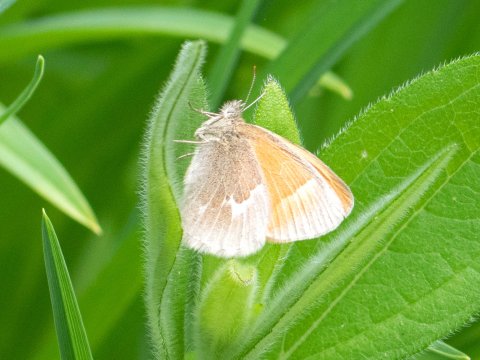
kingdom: Animalia
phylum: Arthropoda
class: Insecta
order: Lepidoptera
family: Nymphalidae
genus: Coenonympha
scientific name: Coenonympha california
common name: California Ringlet
